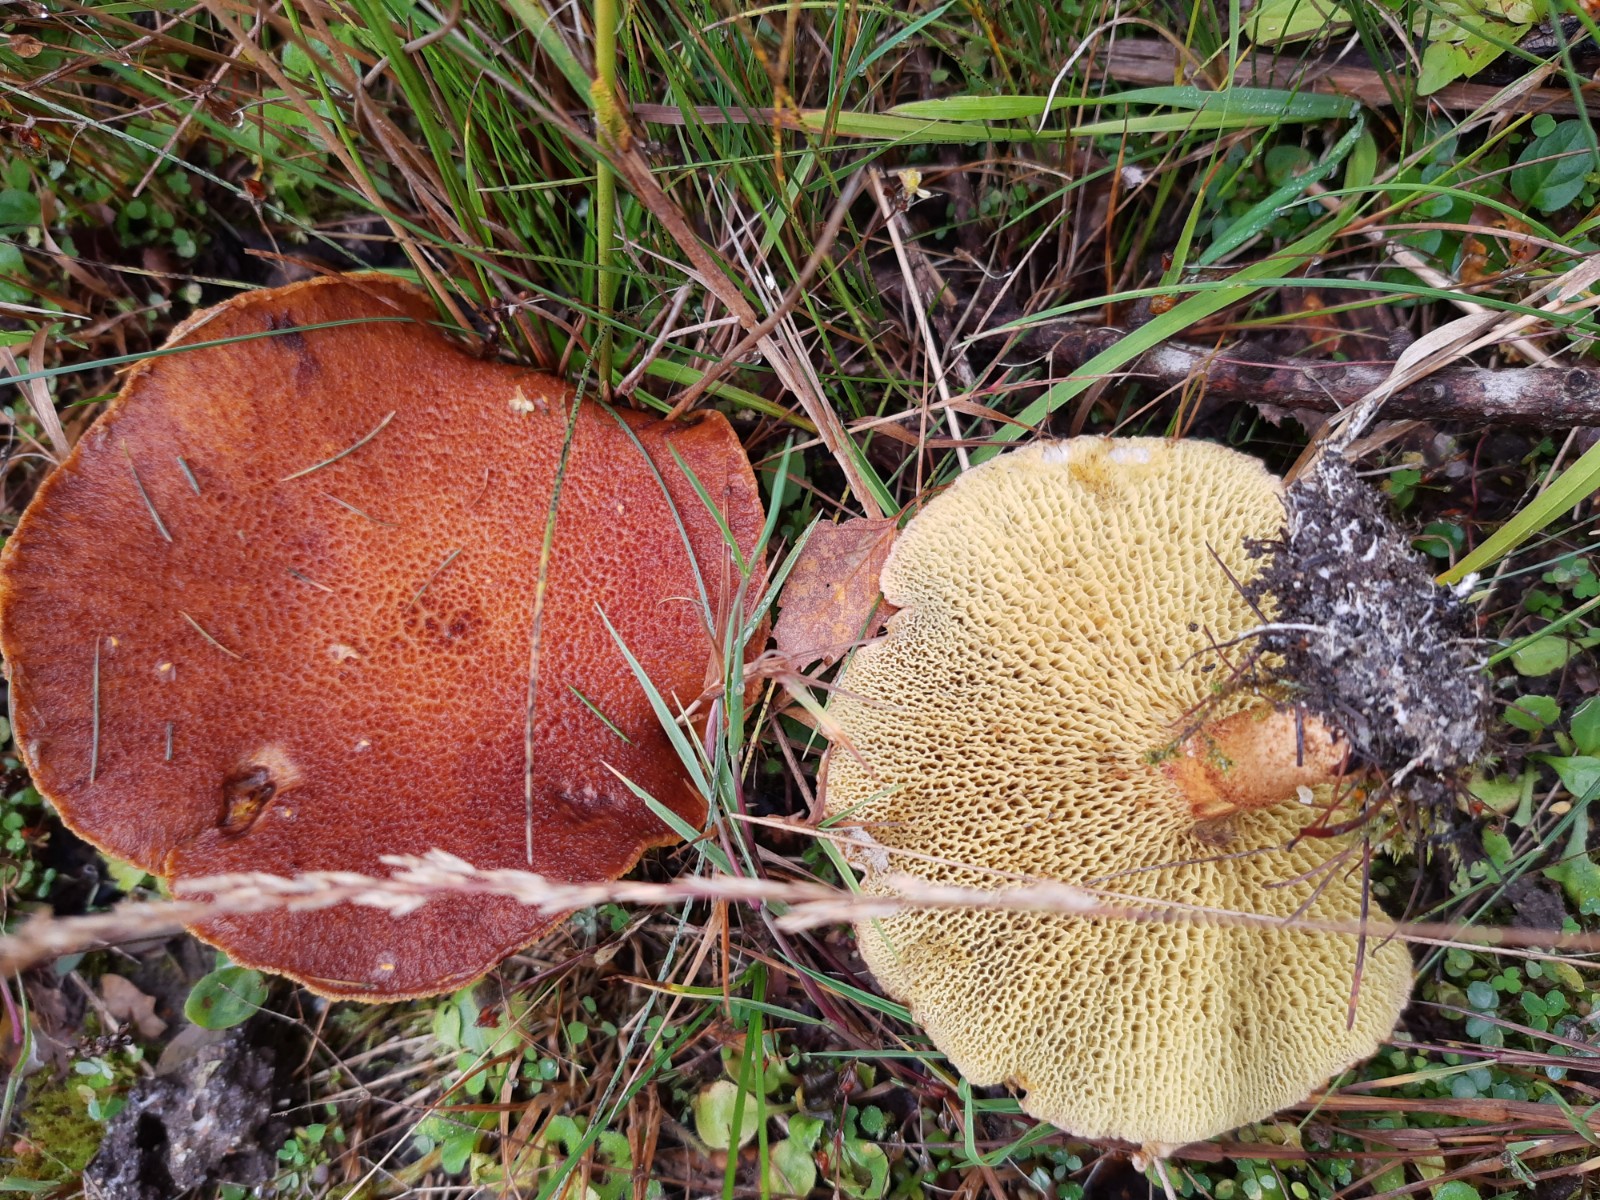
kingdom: Fungi
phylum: Basidiomycota
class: Agaricomycetes
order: Boletales
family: Suillaceae
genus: Suillus
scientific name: Suillus cavipes
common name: hulstokket slimrørhat
